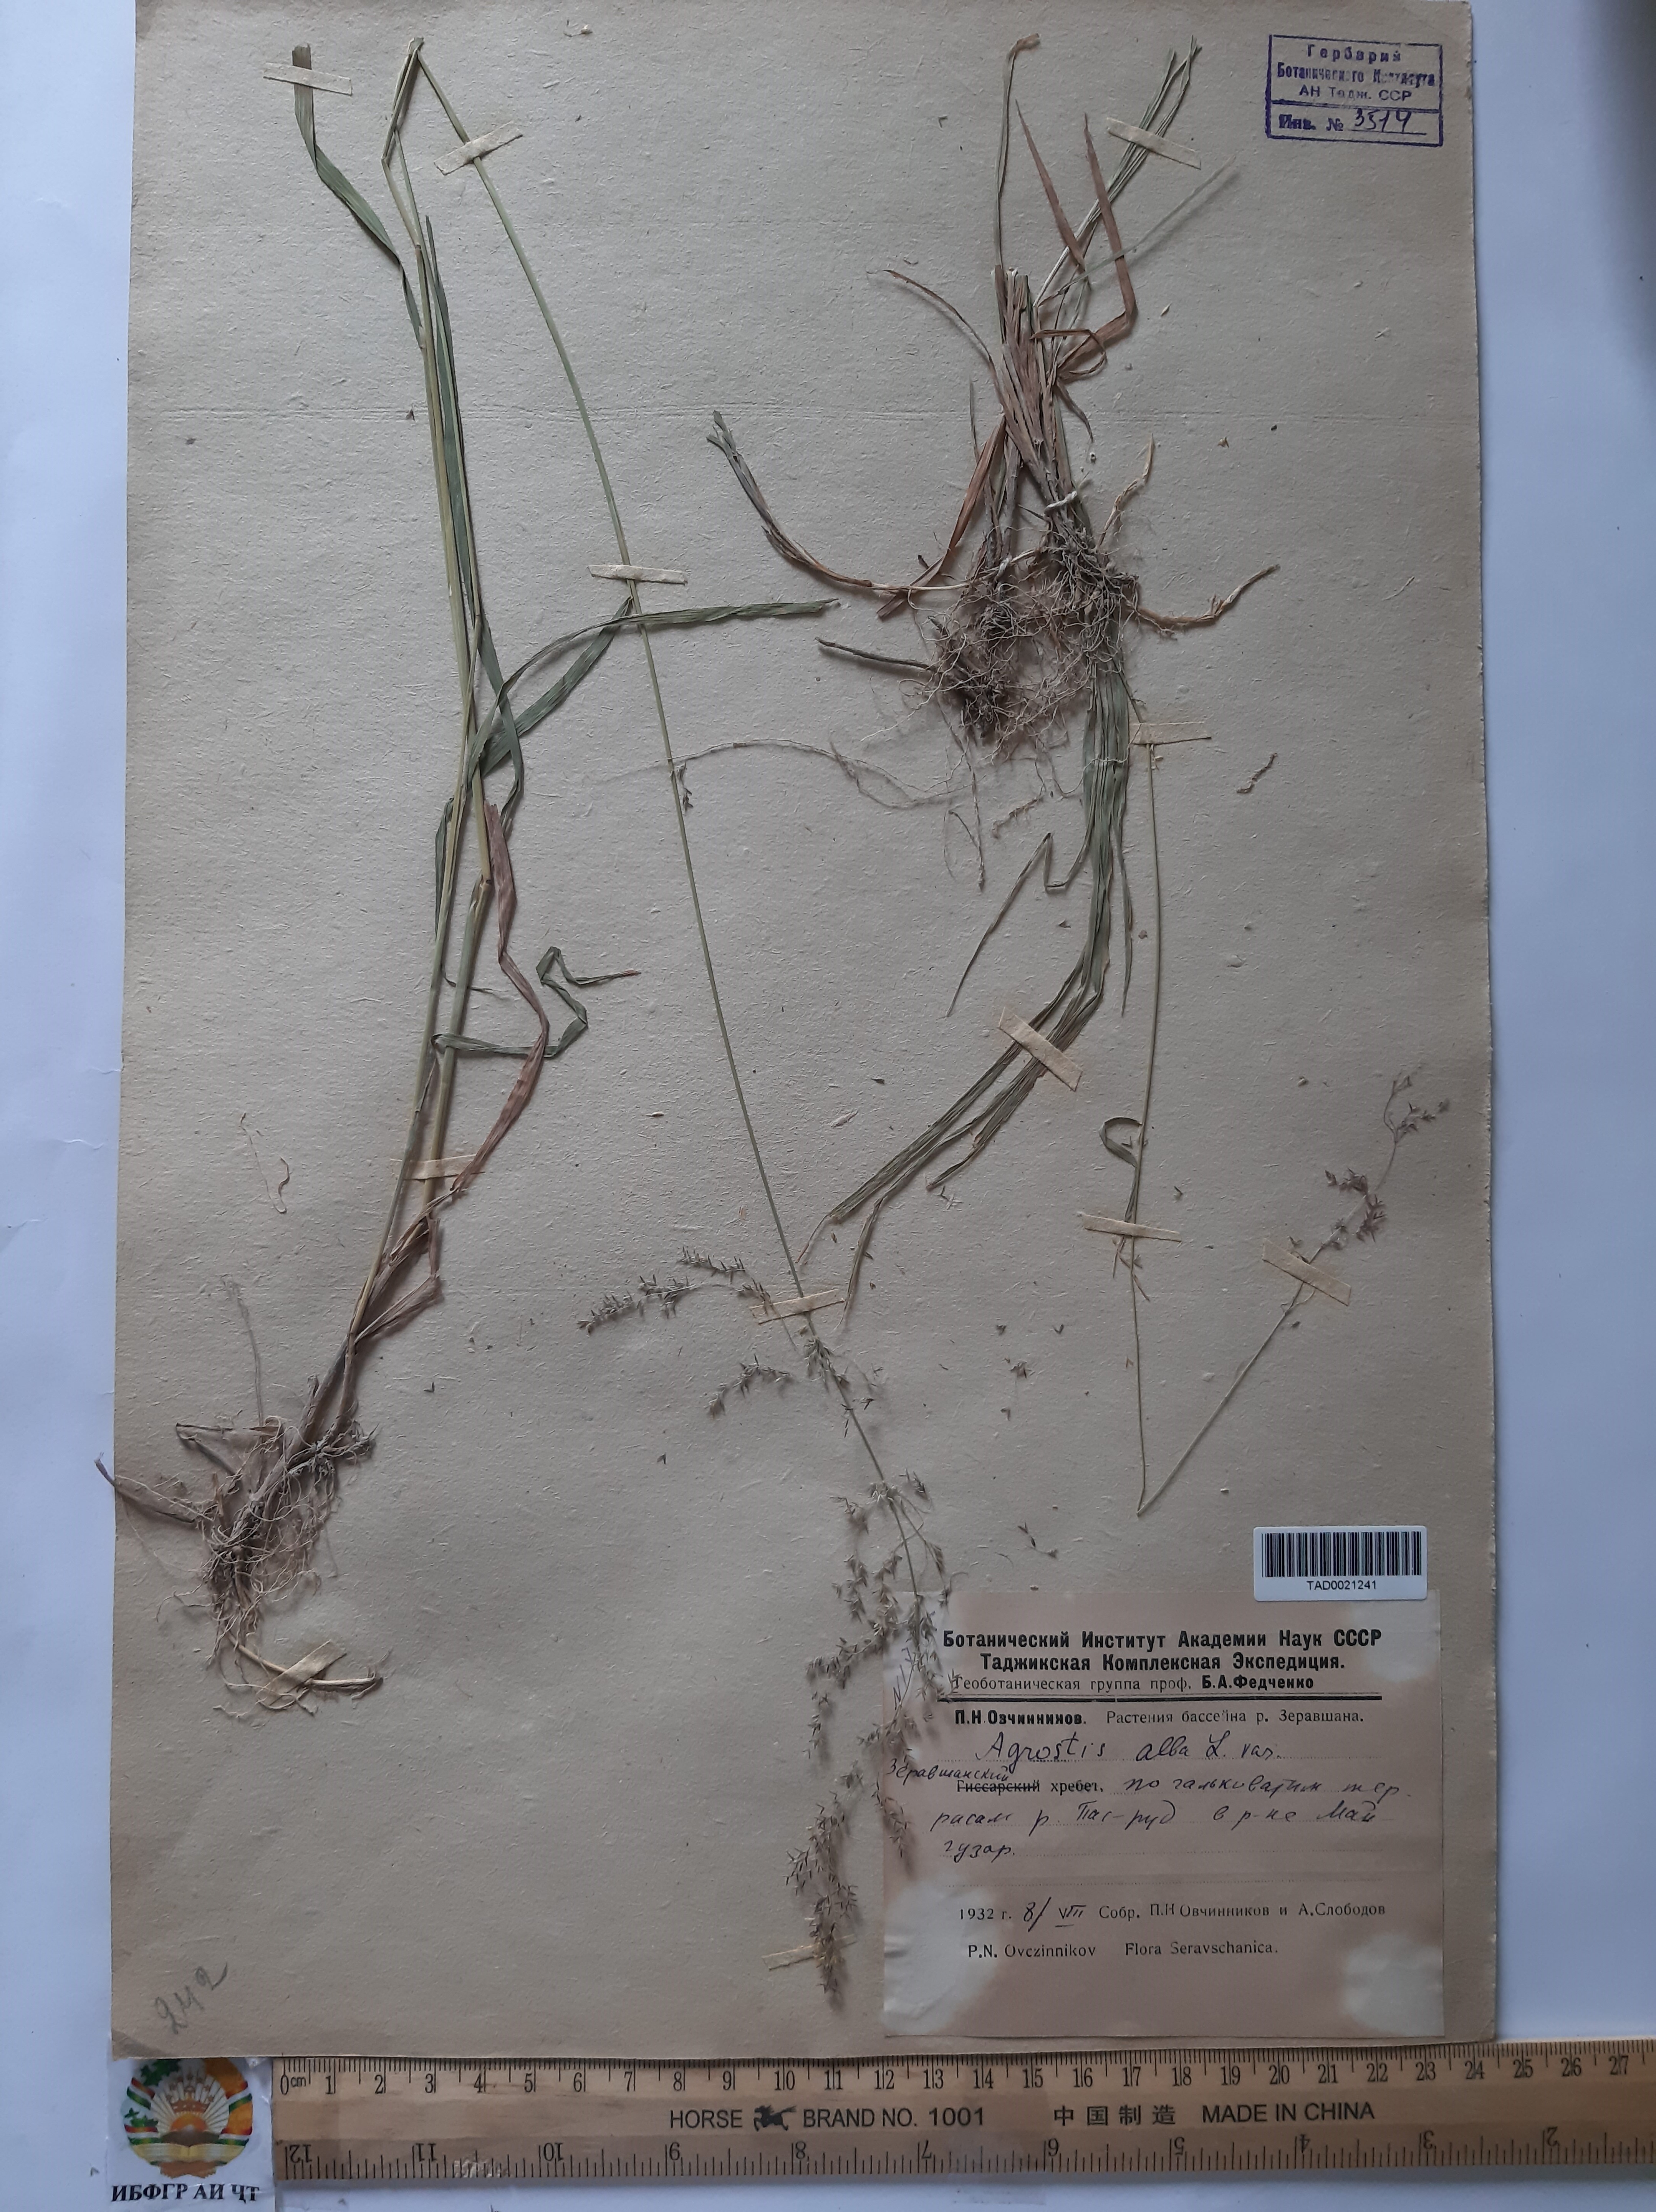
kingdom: Plantae
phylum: Tracheophyta
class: Liliopsida
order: Poales
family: Poaceae
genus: Poa
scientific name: Poa nemoralis
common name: Wood bluegrass
